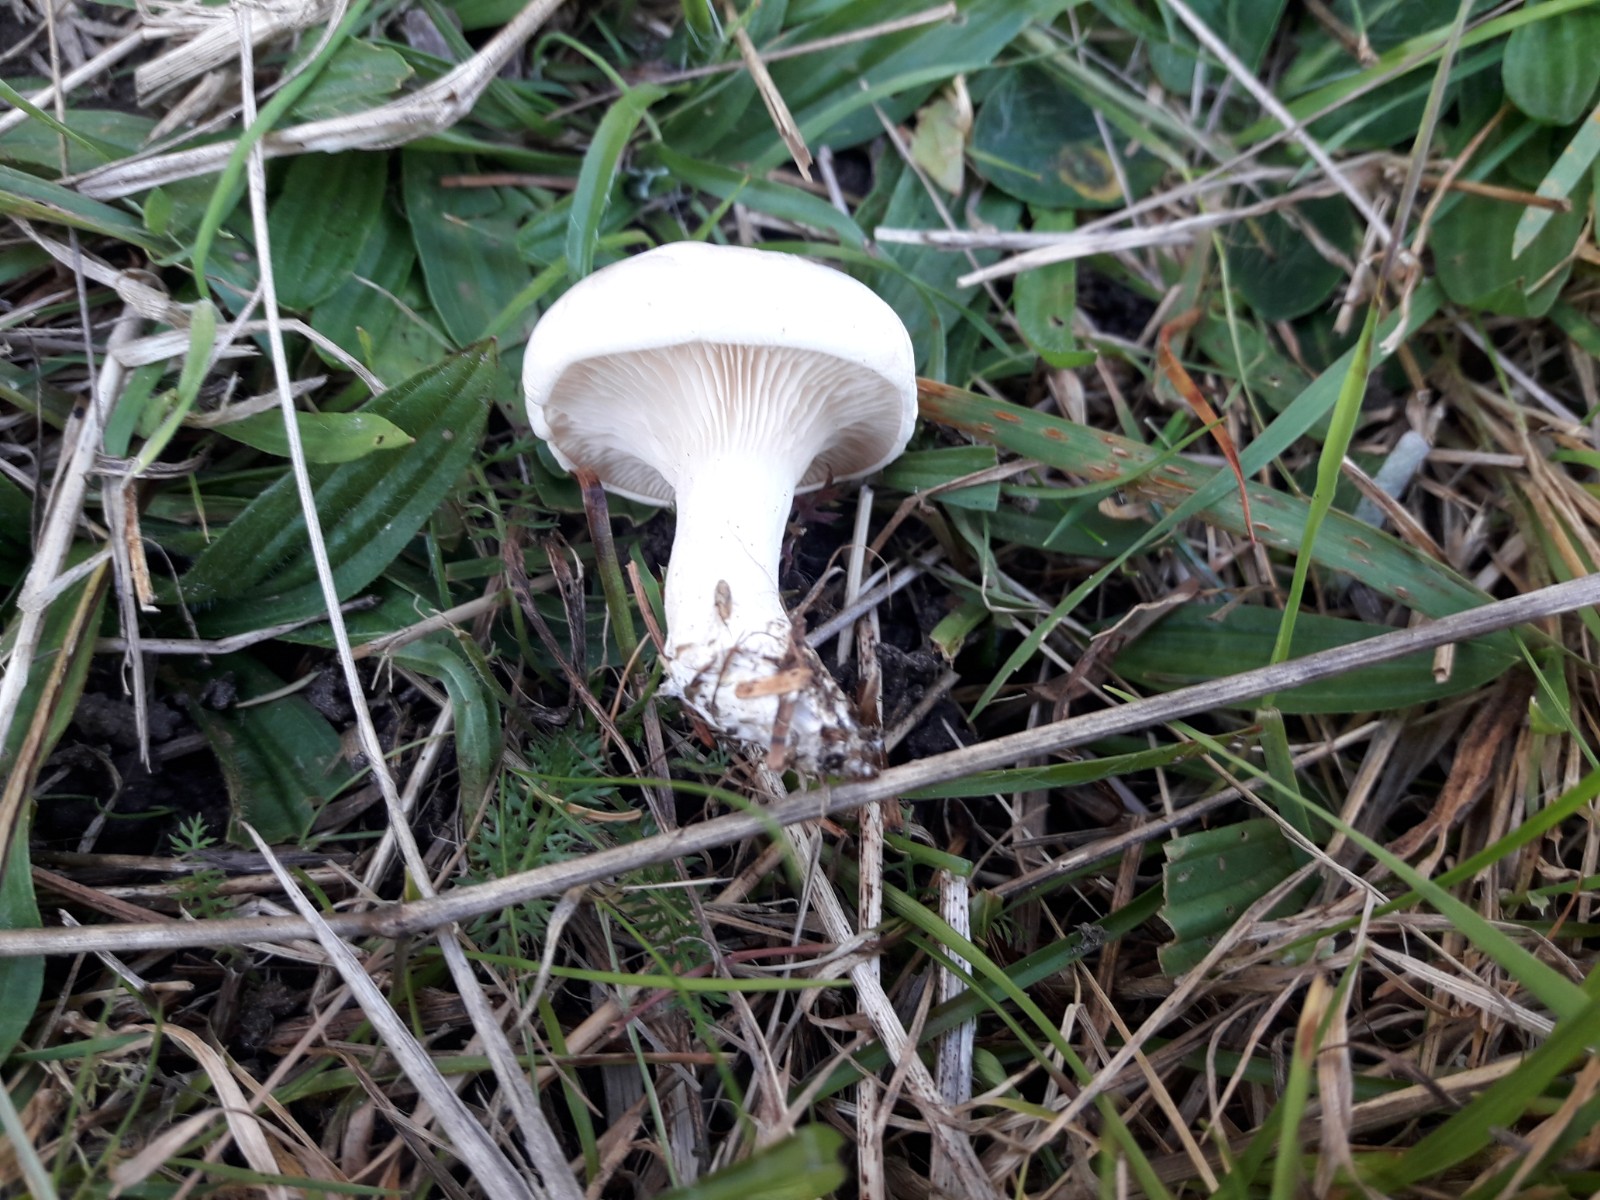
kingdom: Fungi
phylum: Basidiomycota
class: Agaricomycetes
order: Agaricales
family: Entolomataceae
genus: Clitopilus
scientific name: Clitopilus prunulus
